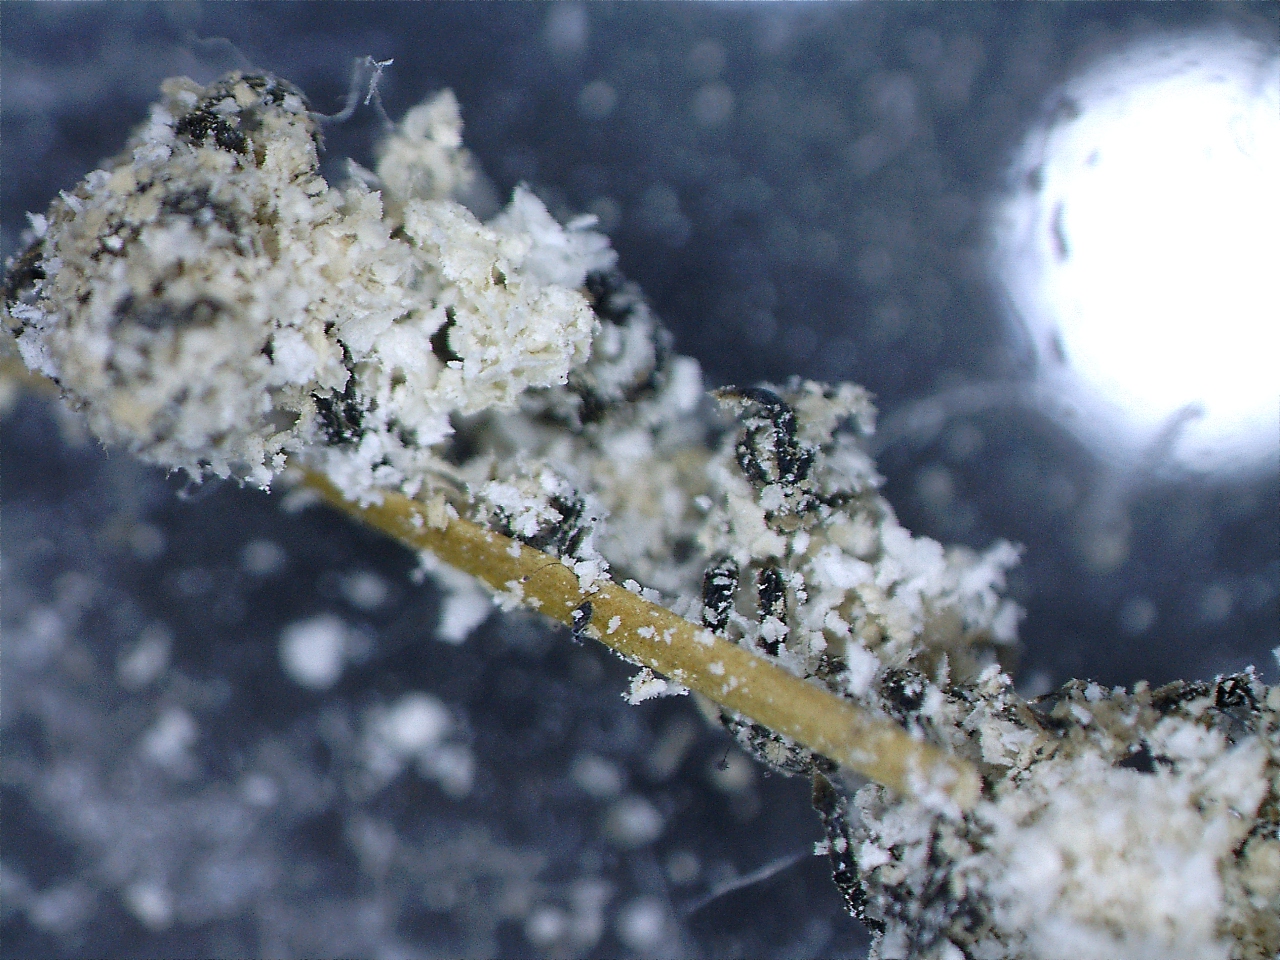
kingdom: Fungi
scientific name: Fungi
